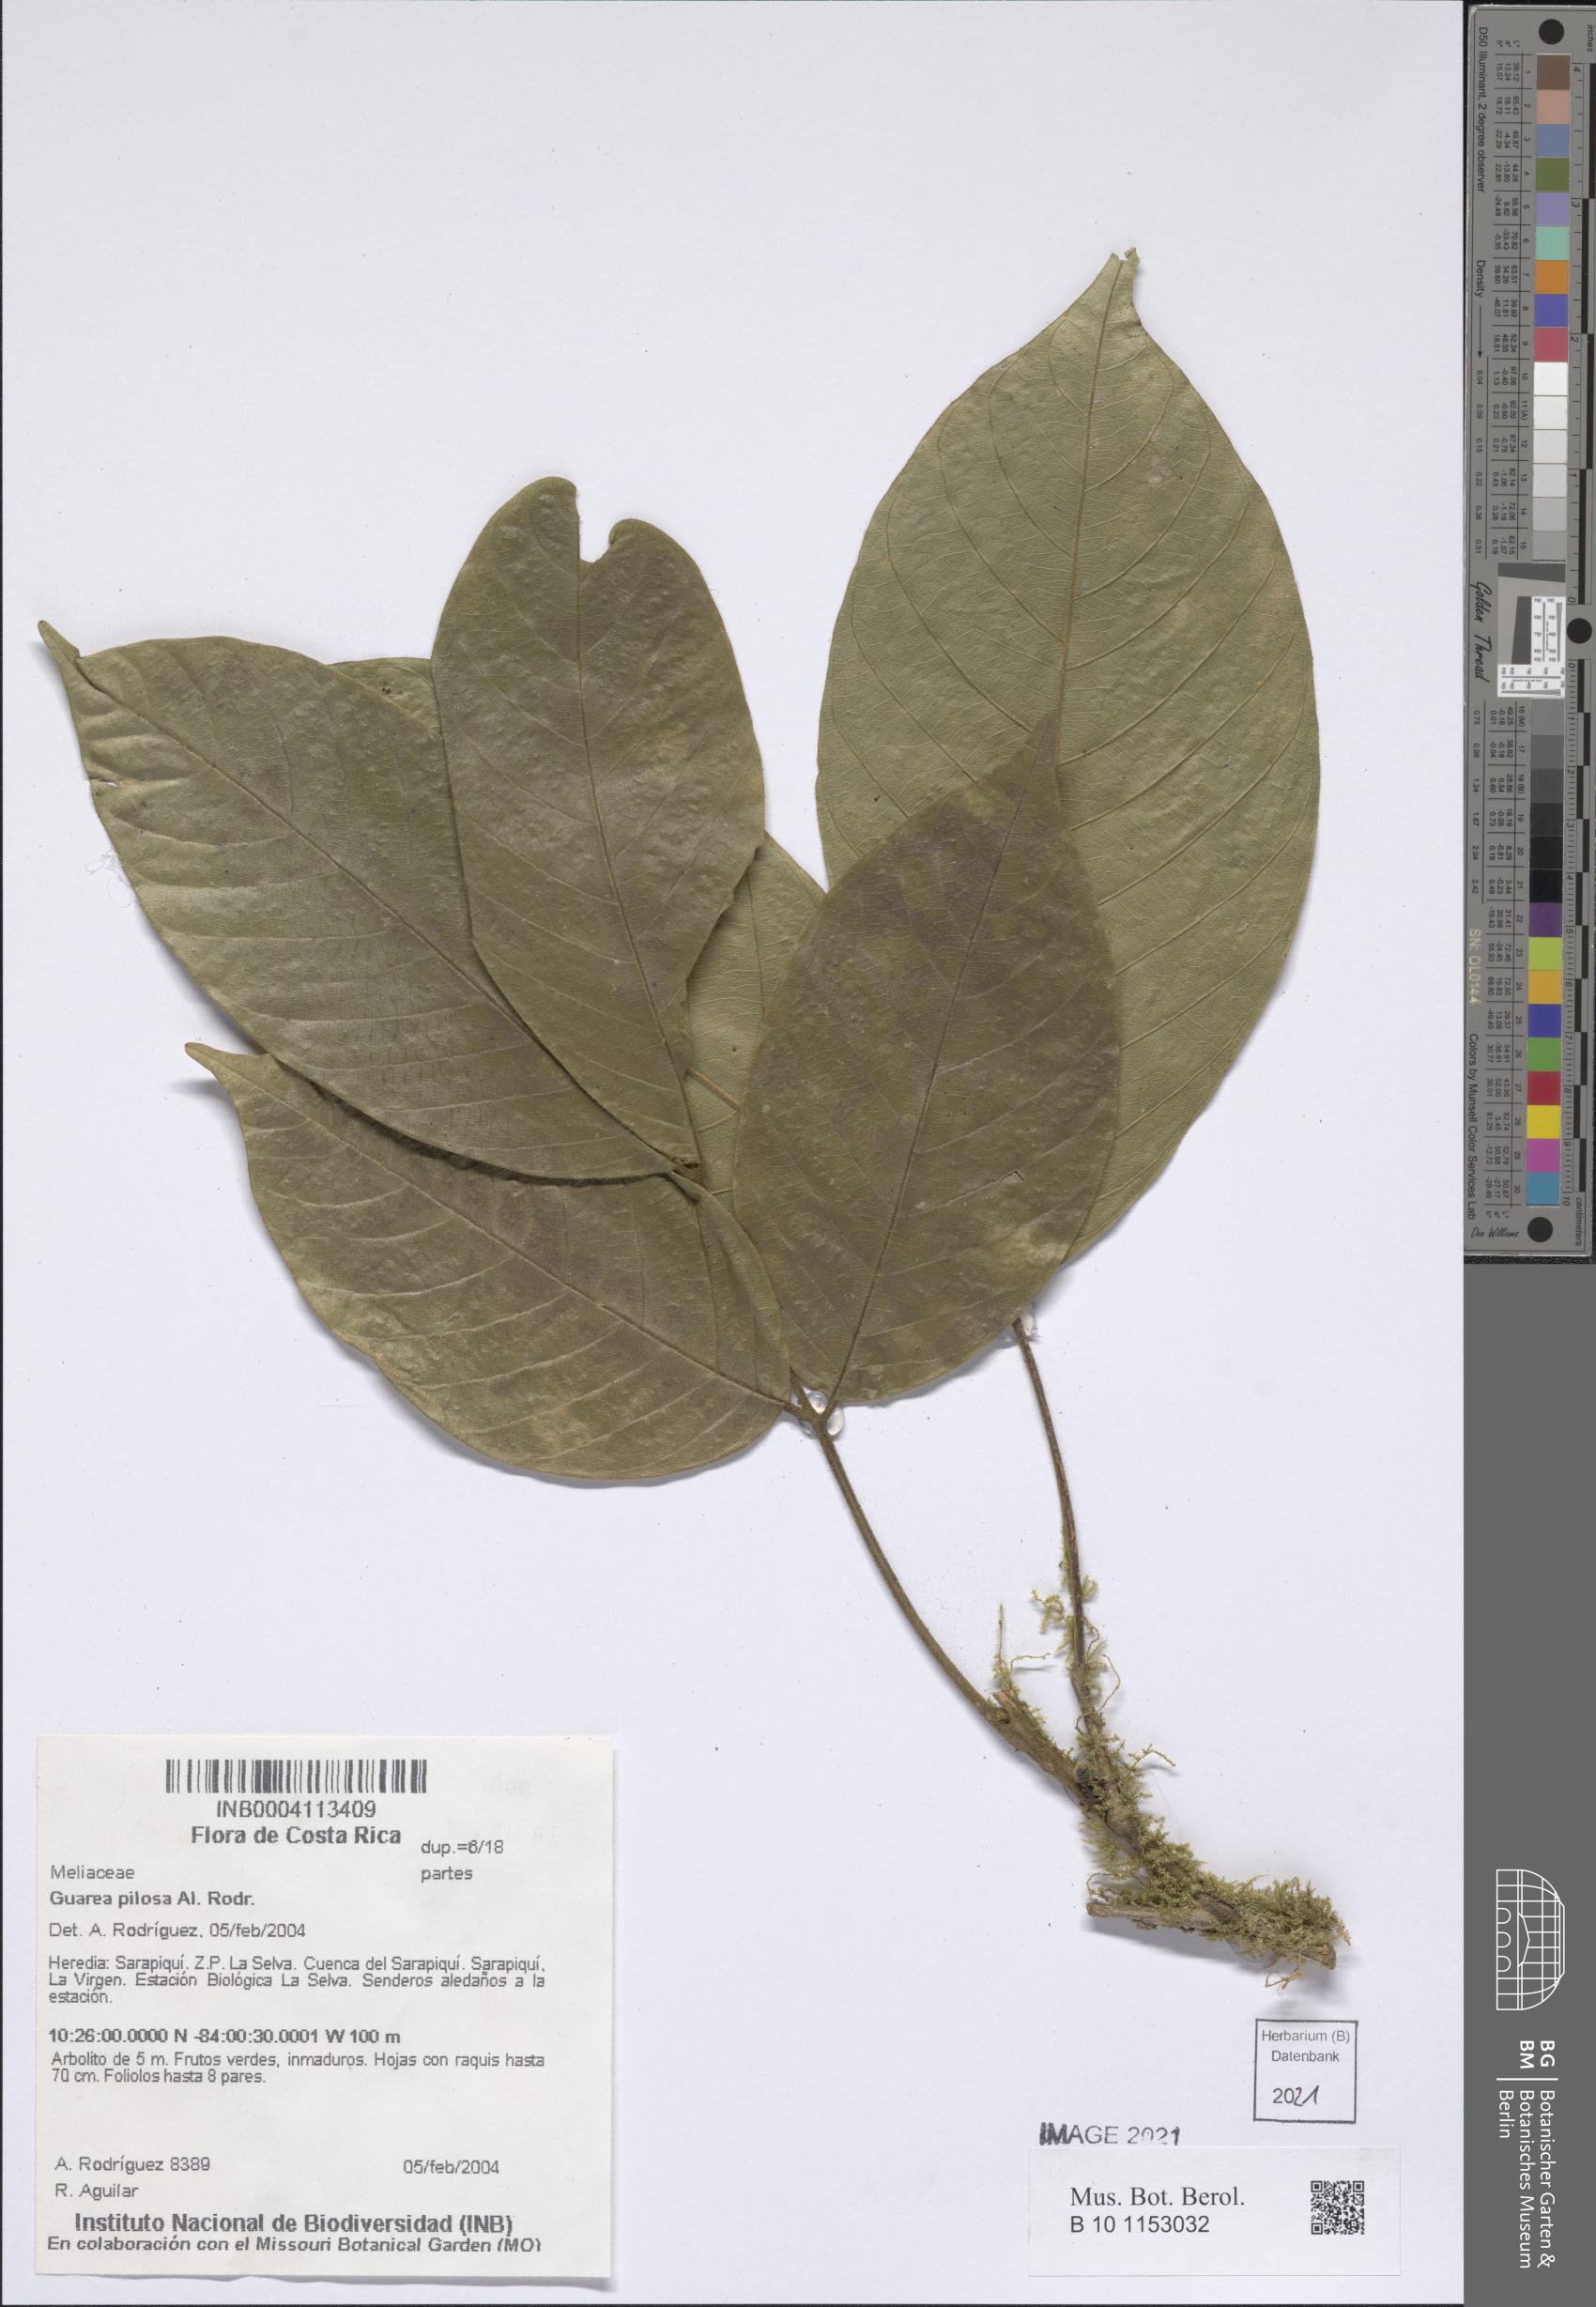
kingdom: Plantae
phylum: Tracheophyta
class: Magnoliopsida
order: Sapindales
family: Meliaceae
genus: Guarea
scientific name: Guarea pilosa
